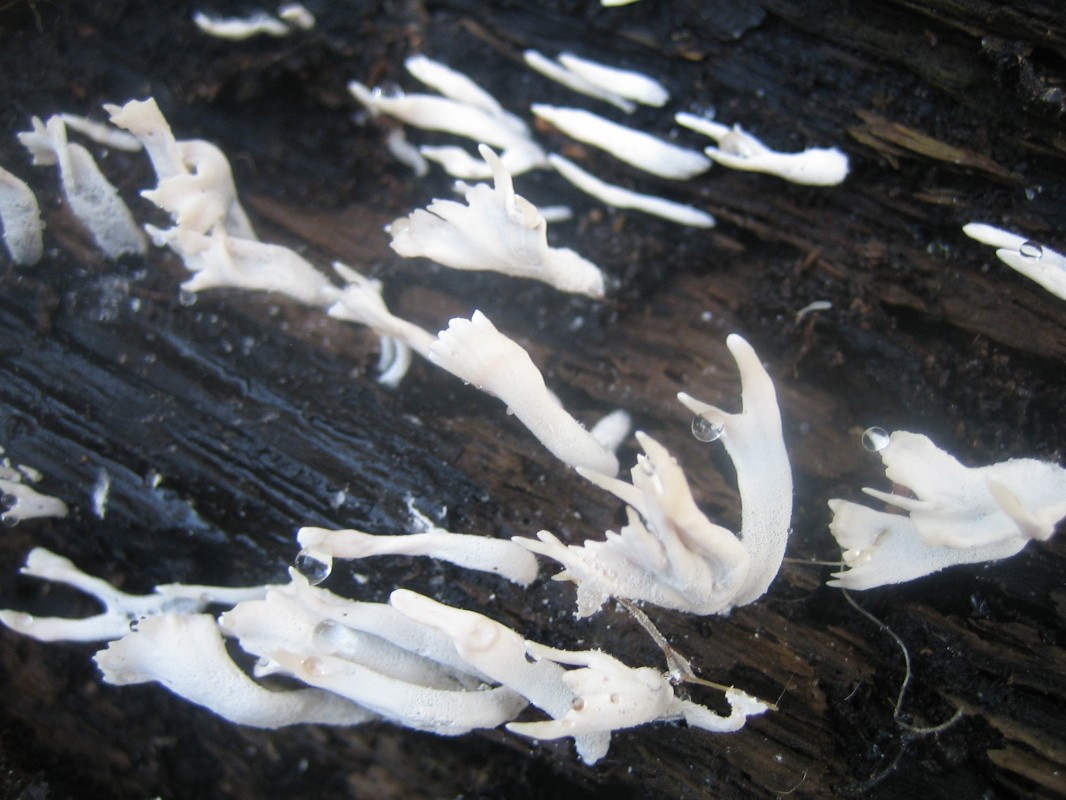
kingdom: Fungi
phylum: Ascomycota
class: Sordariomycetes
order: Xylariales
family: Xylariaceae
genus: Xylaria
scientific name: Xylaria hypoxylon
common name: grenet stødsvamp
